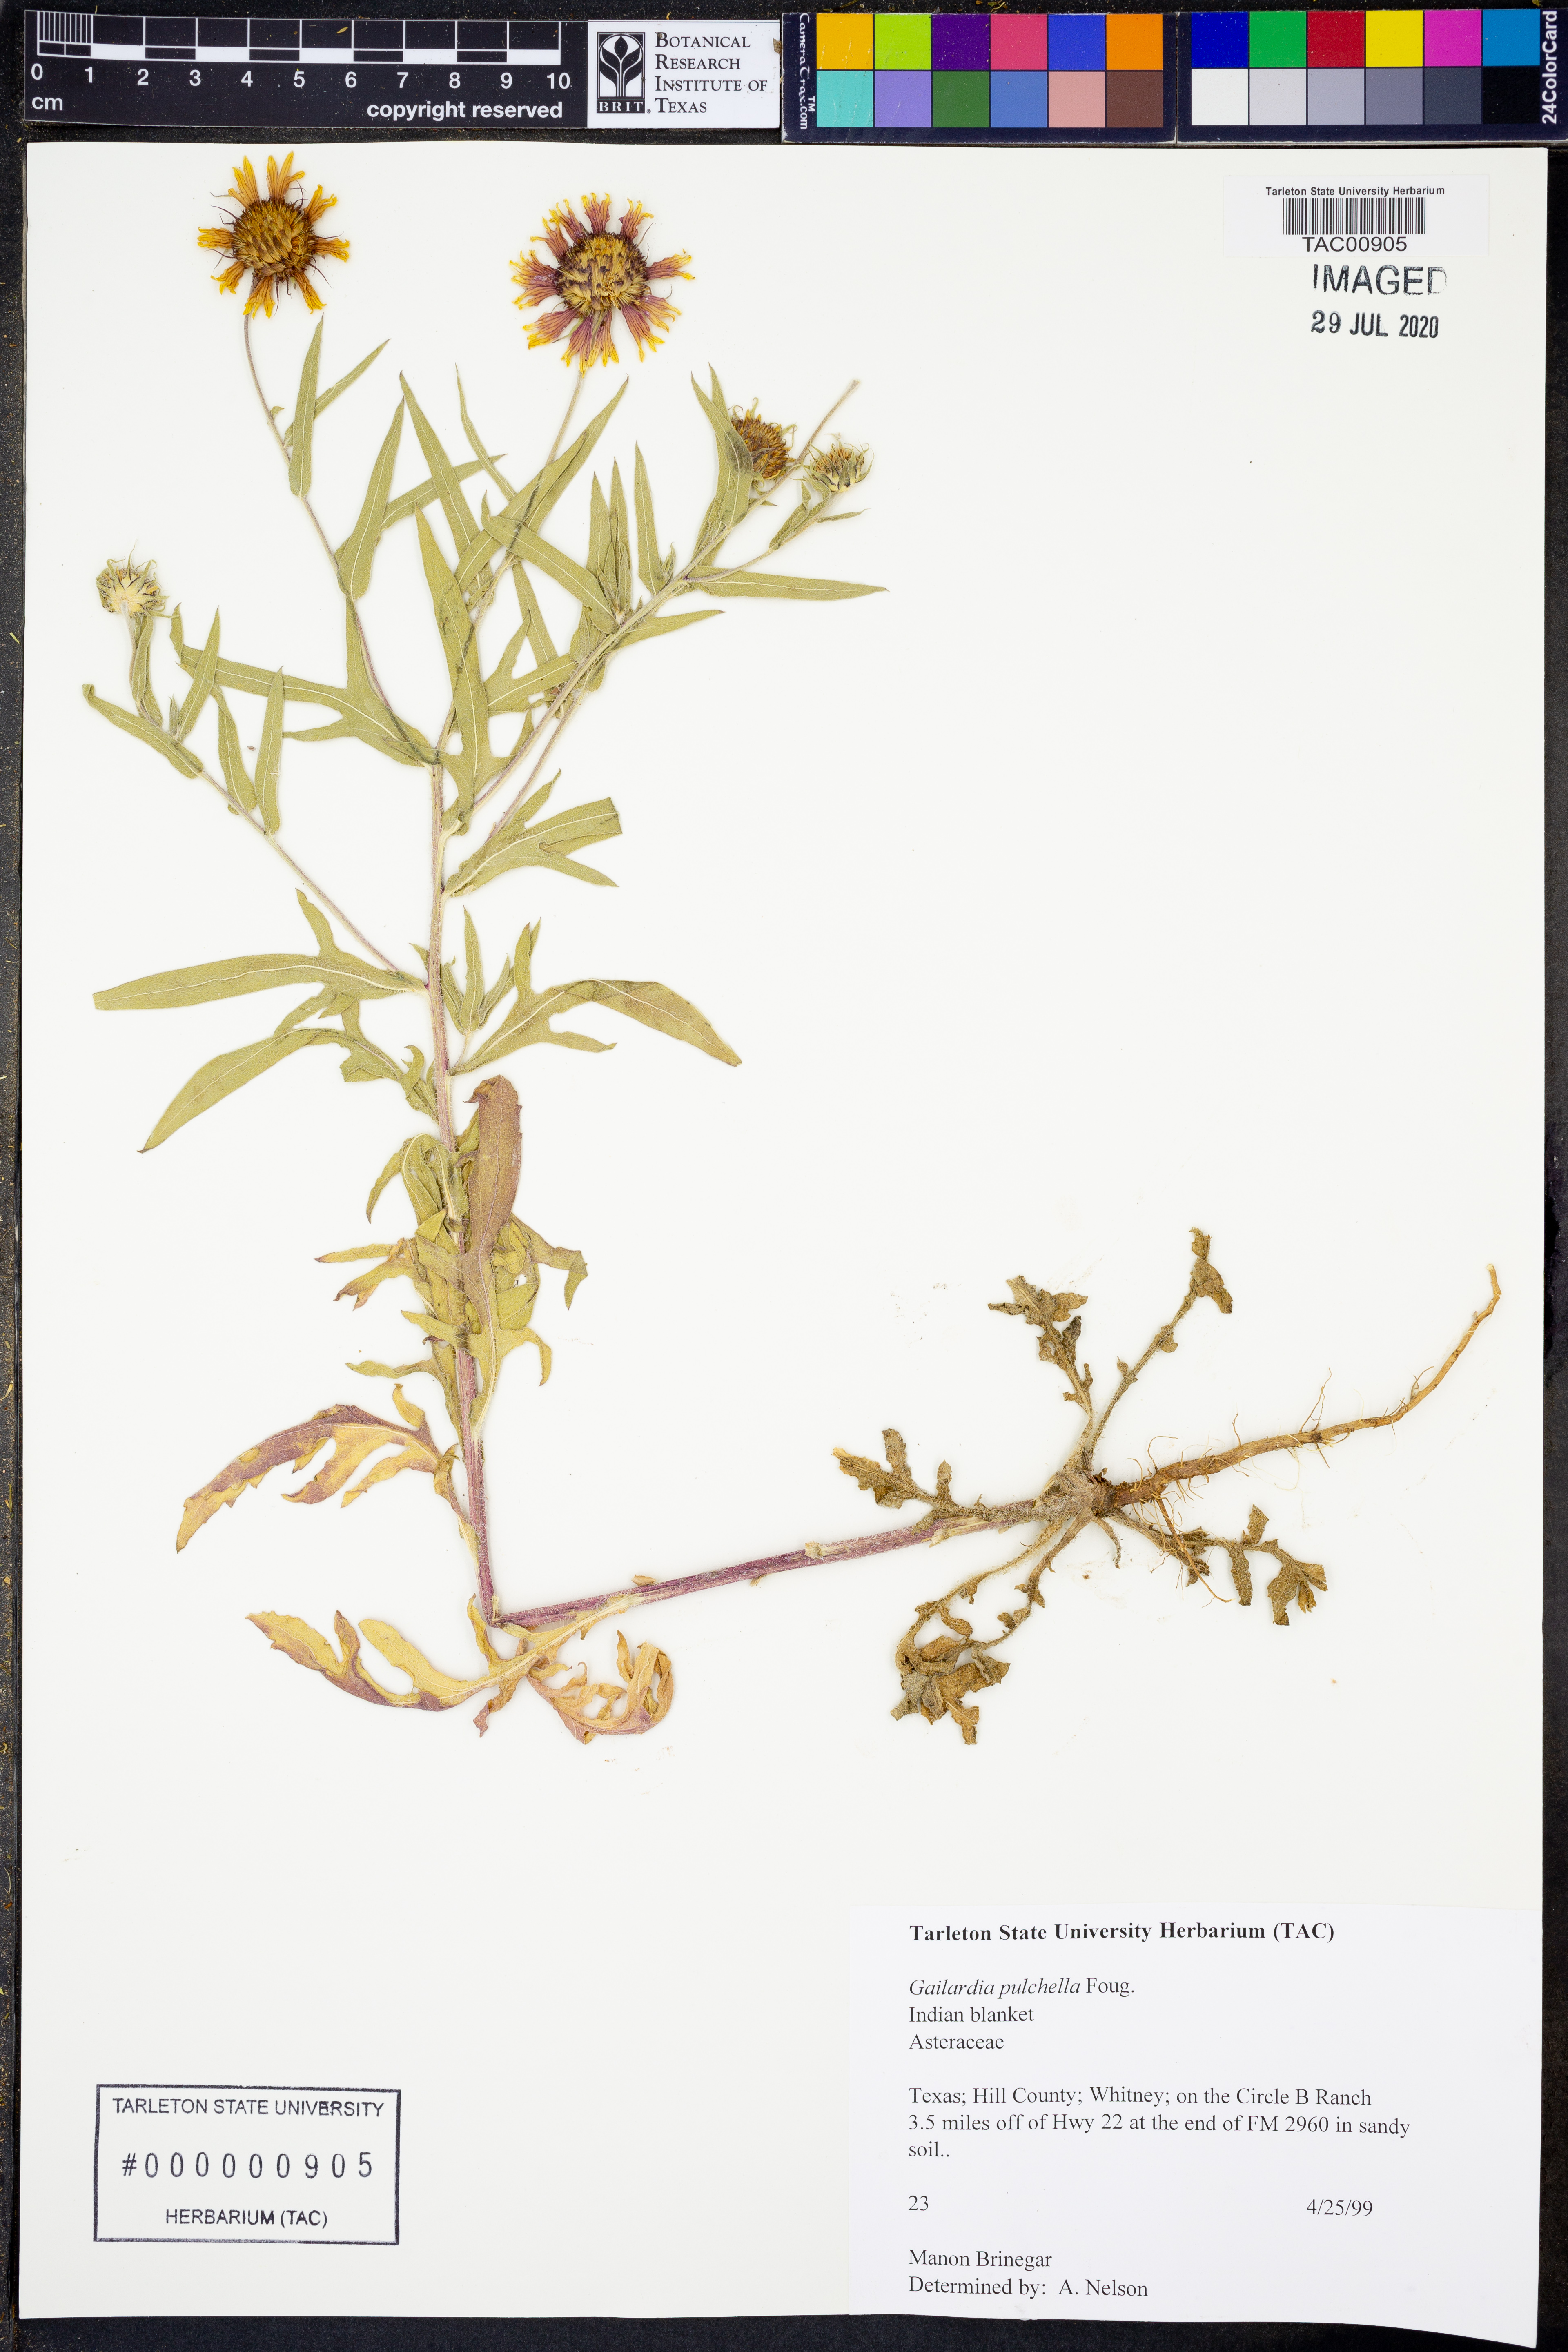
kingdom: Plantae
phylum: Tracheophyta
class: Magnoliopsida
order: Asterales
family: Asteraceae
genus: Gaillardia
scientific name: Gaillardia pulchella
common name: Firewheel
